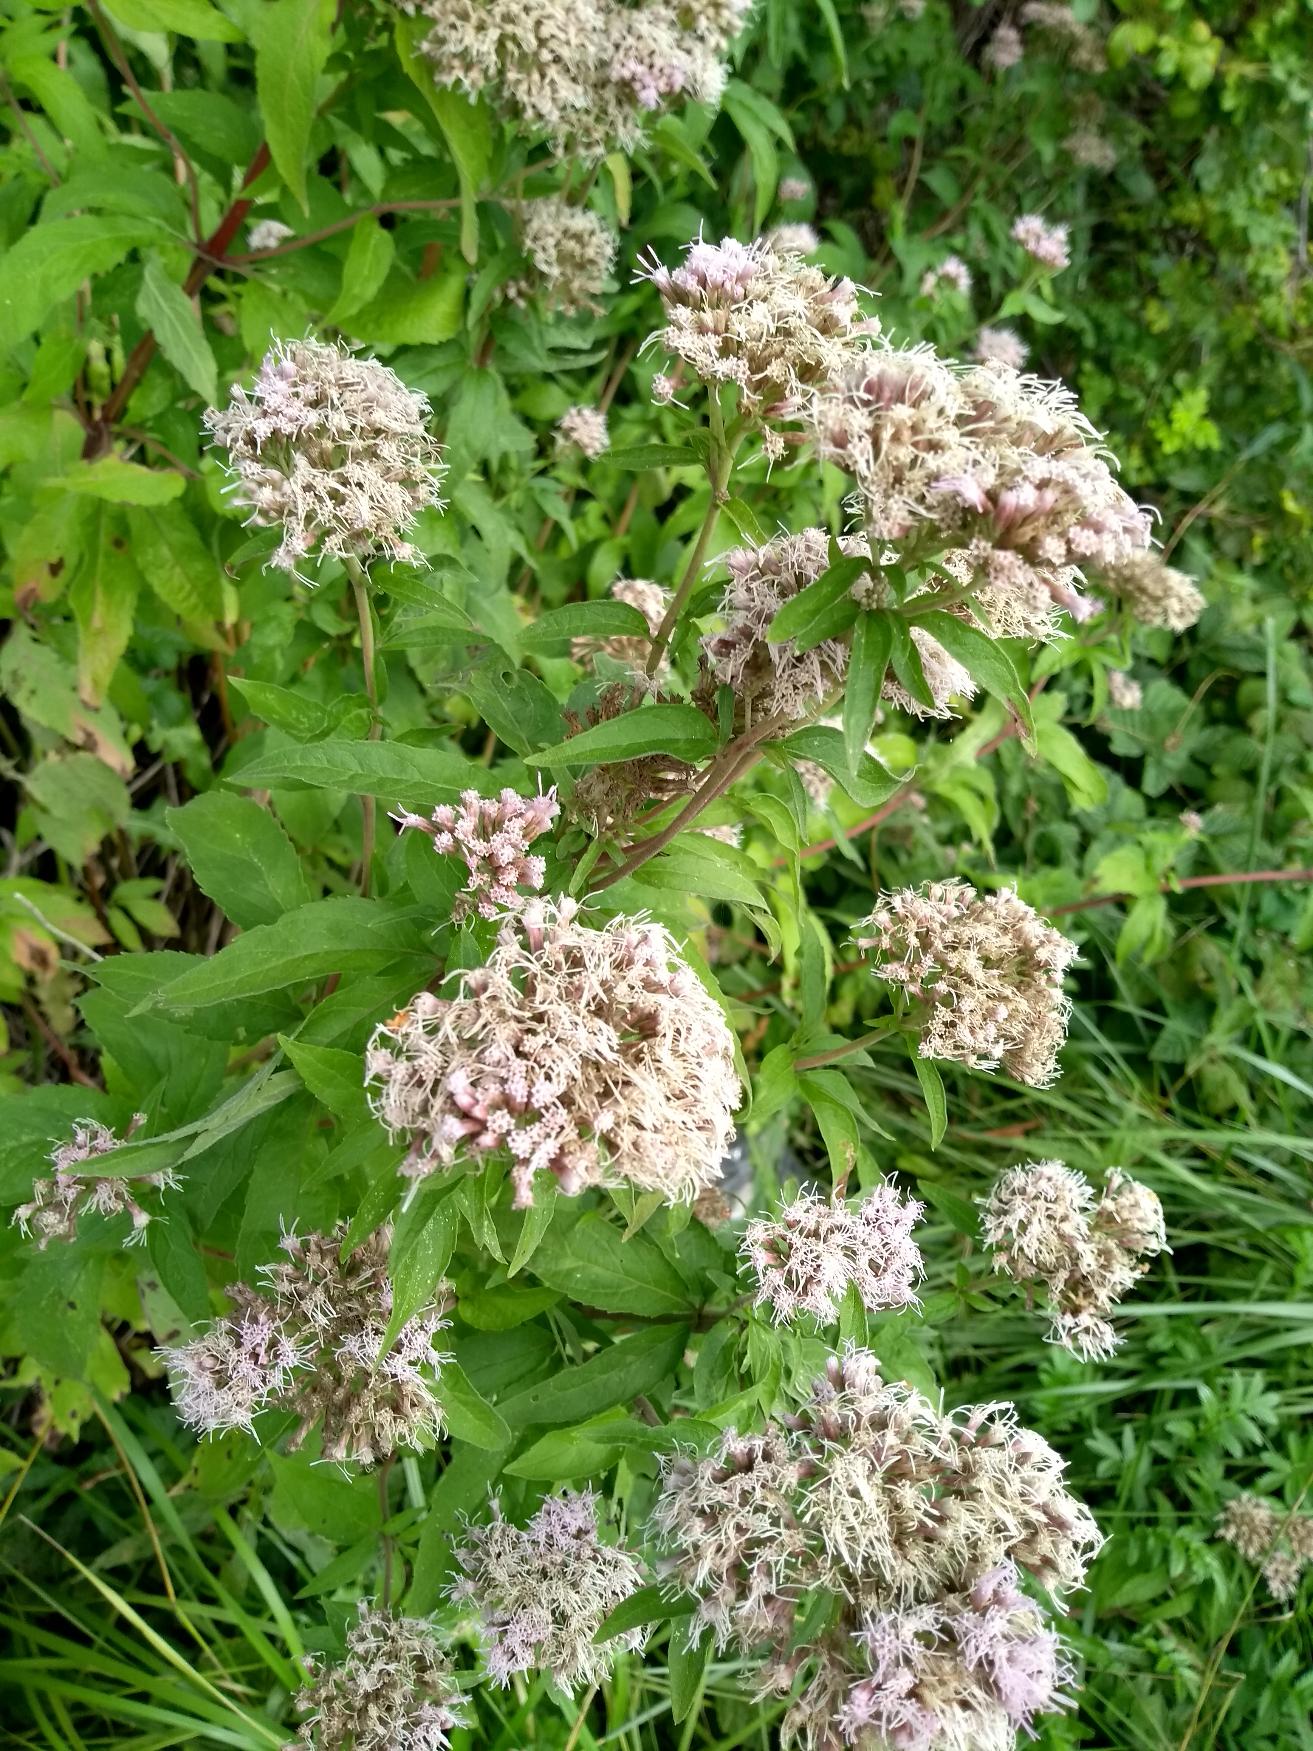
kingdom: Plantae
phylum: Tracheophyta
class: Magnoliopsida
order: Asterales
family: Asteraceae
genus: Eupatorium
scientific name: Eupatorium cannabinum
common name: Hjortetrøst
